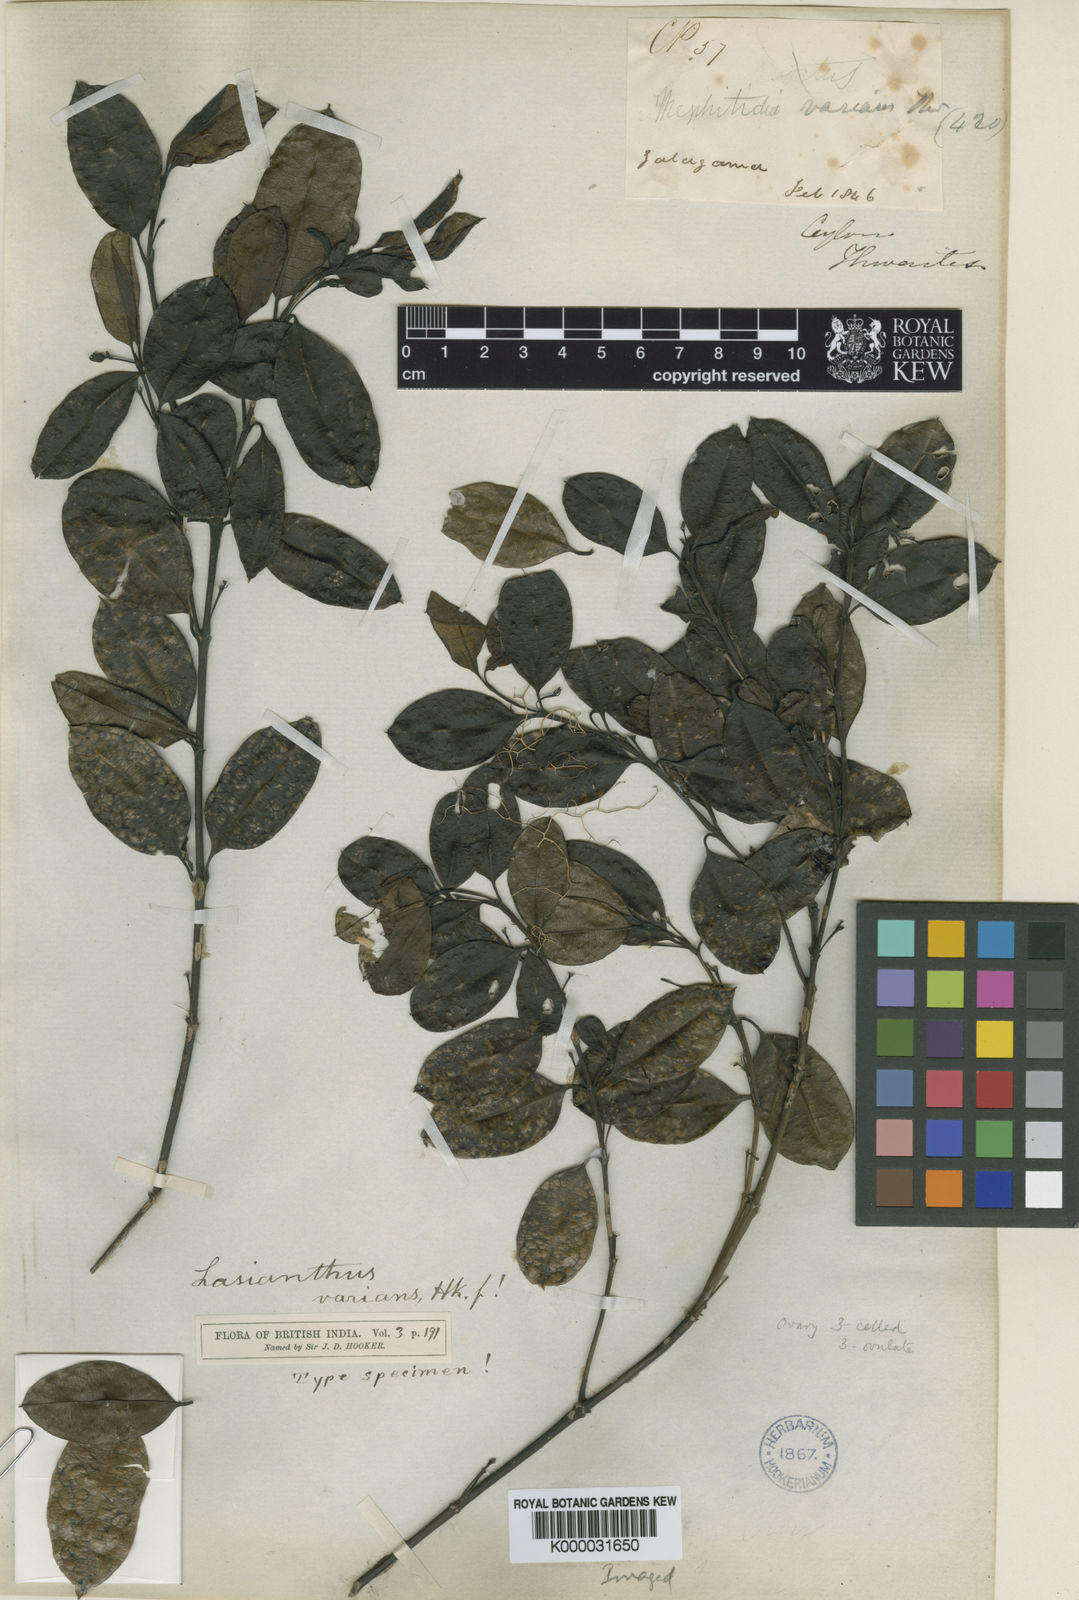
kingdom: Plantae
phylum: Tracheophyta
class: Magnoliopsida
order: Gentianales
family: Rubiaceae
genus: Lasianthus
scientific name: Lasianthus varians
